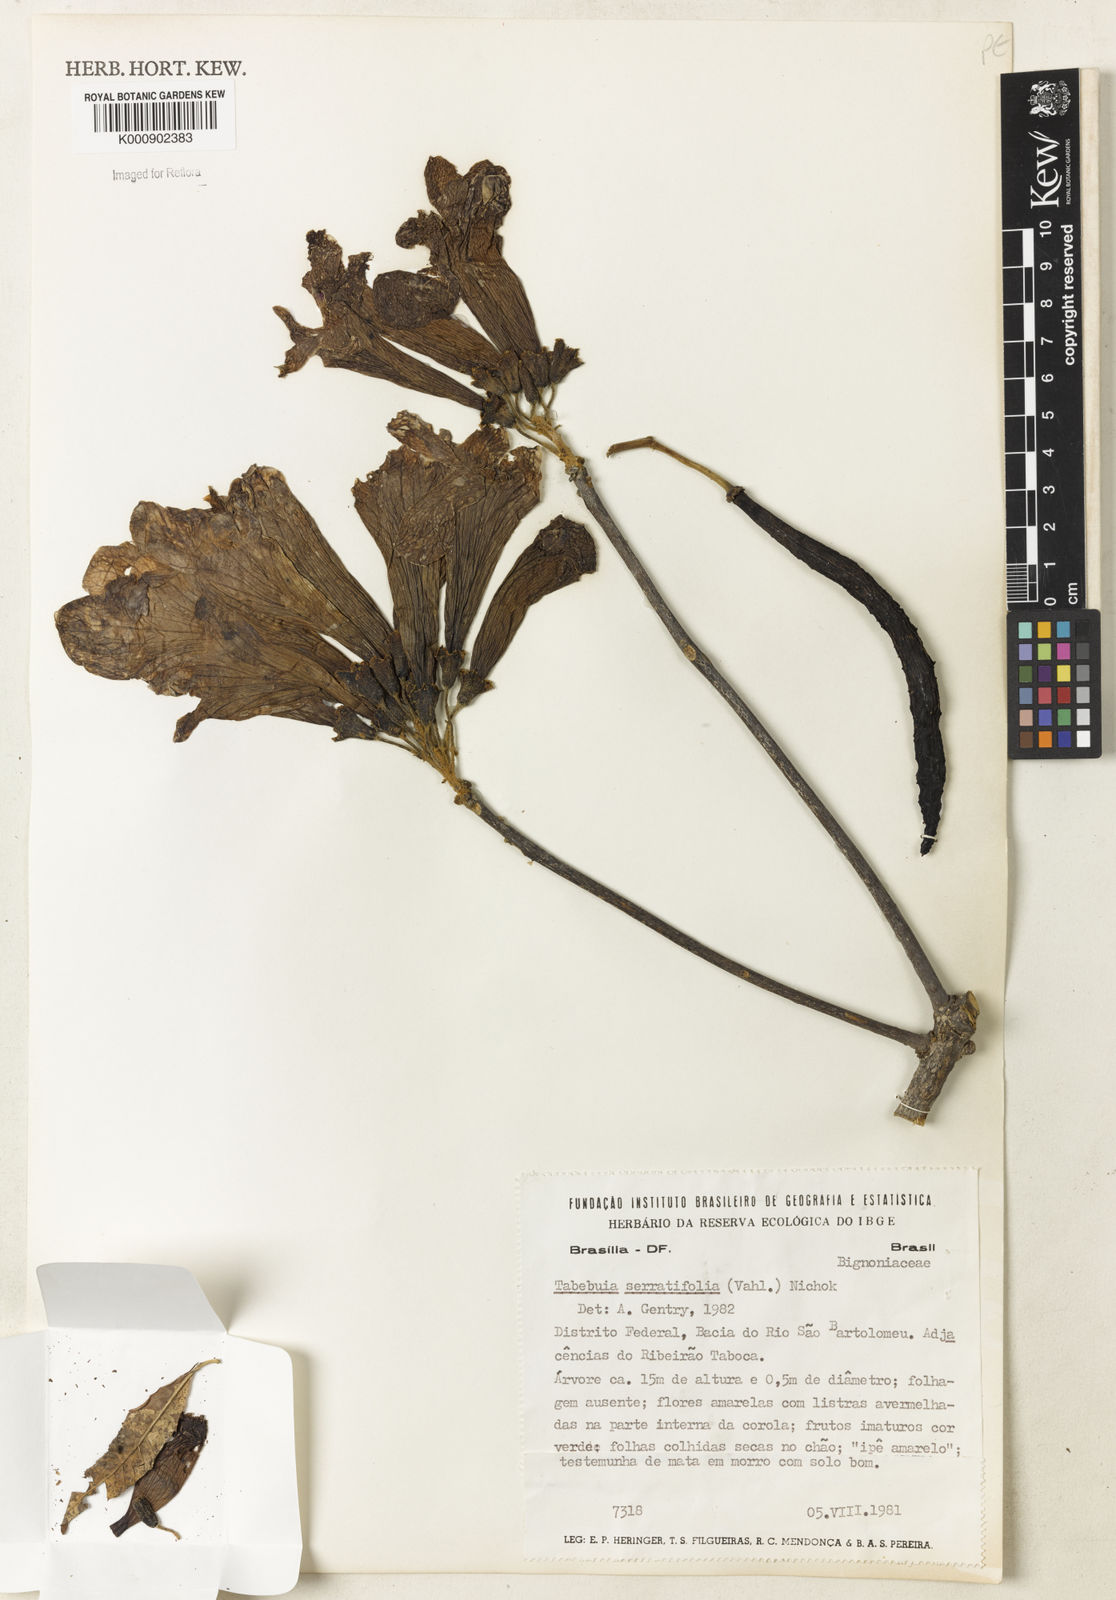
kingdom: Plantae
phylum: Tracheophyta
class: Magnoliopsida
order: Lamiales
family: Bignoniaceae
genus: Handroanthus
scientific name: Handroanthus serratifolius
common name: Yellow ipe
